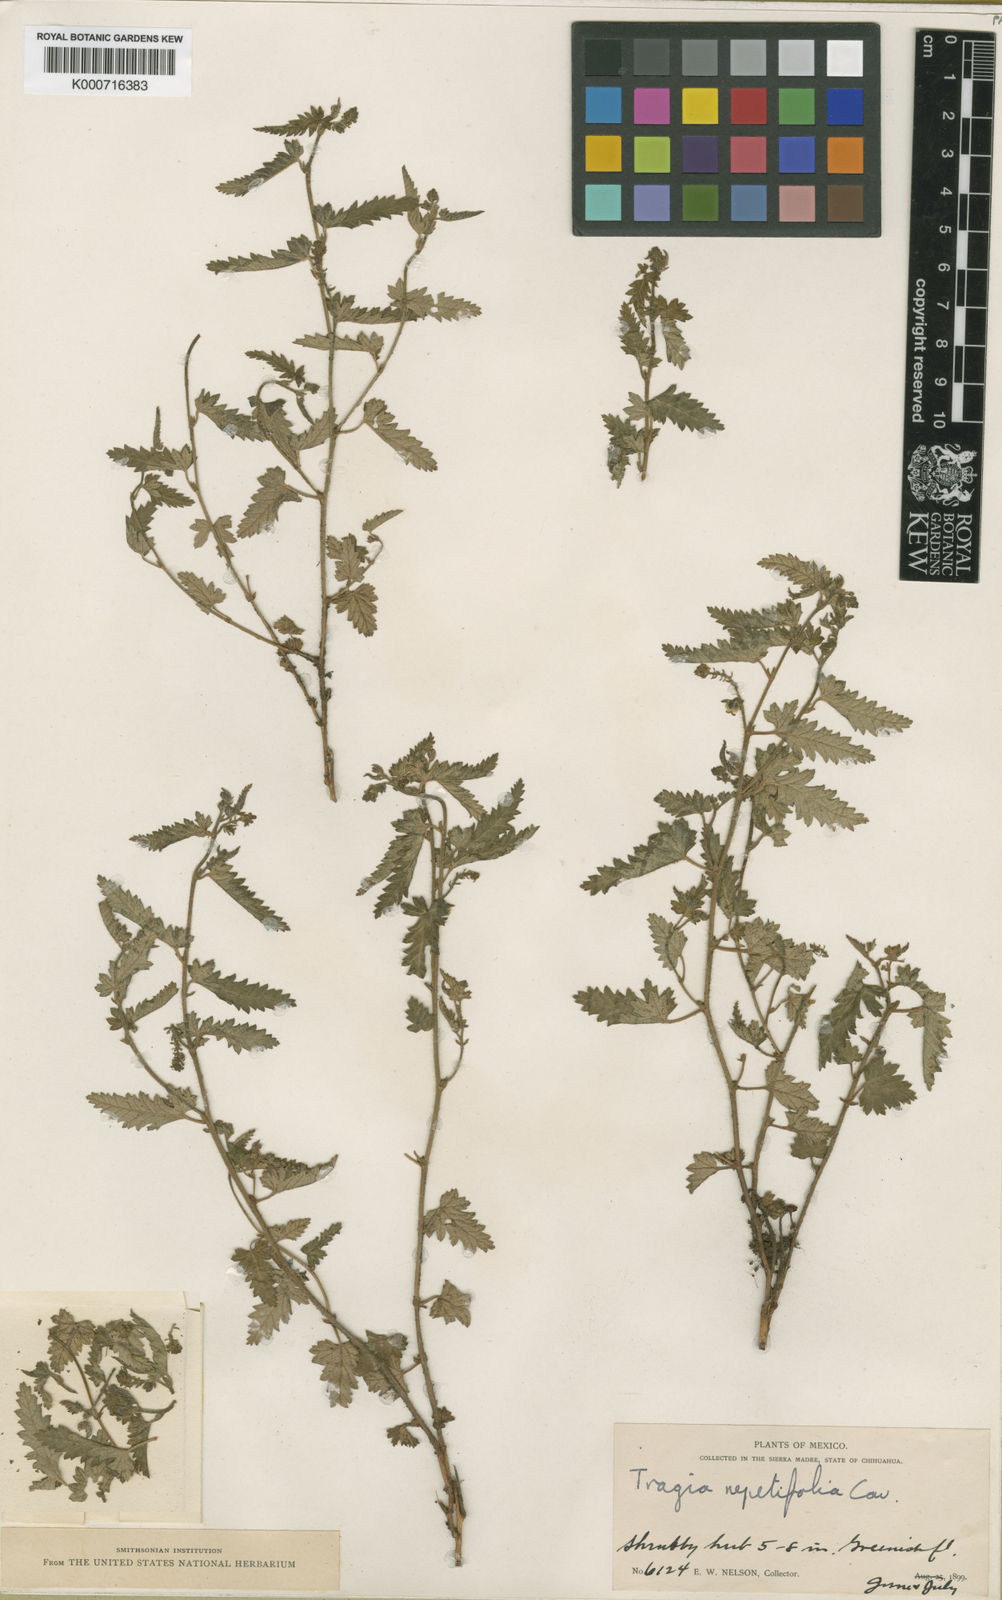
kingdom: Plantae
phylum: Tracheophyta
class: Magnoliopsida
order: Malpighiales
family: Euphorbiaceae
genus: Tragia
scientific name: Tragia nepetifolia
